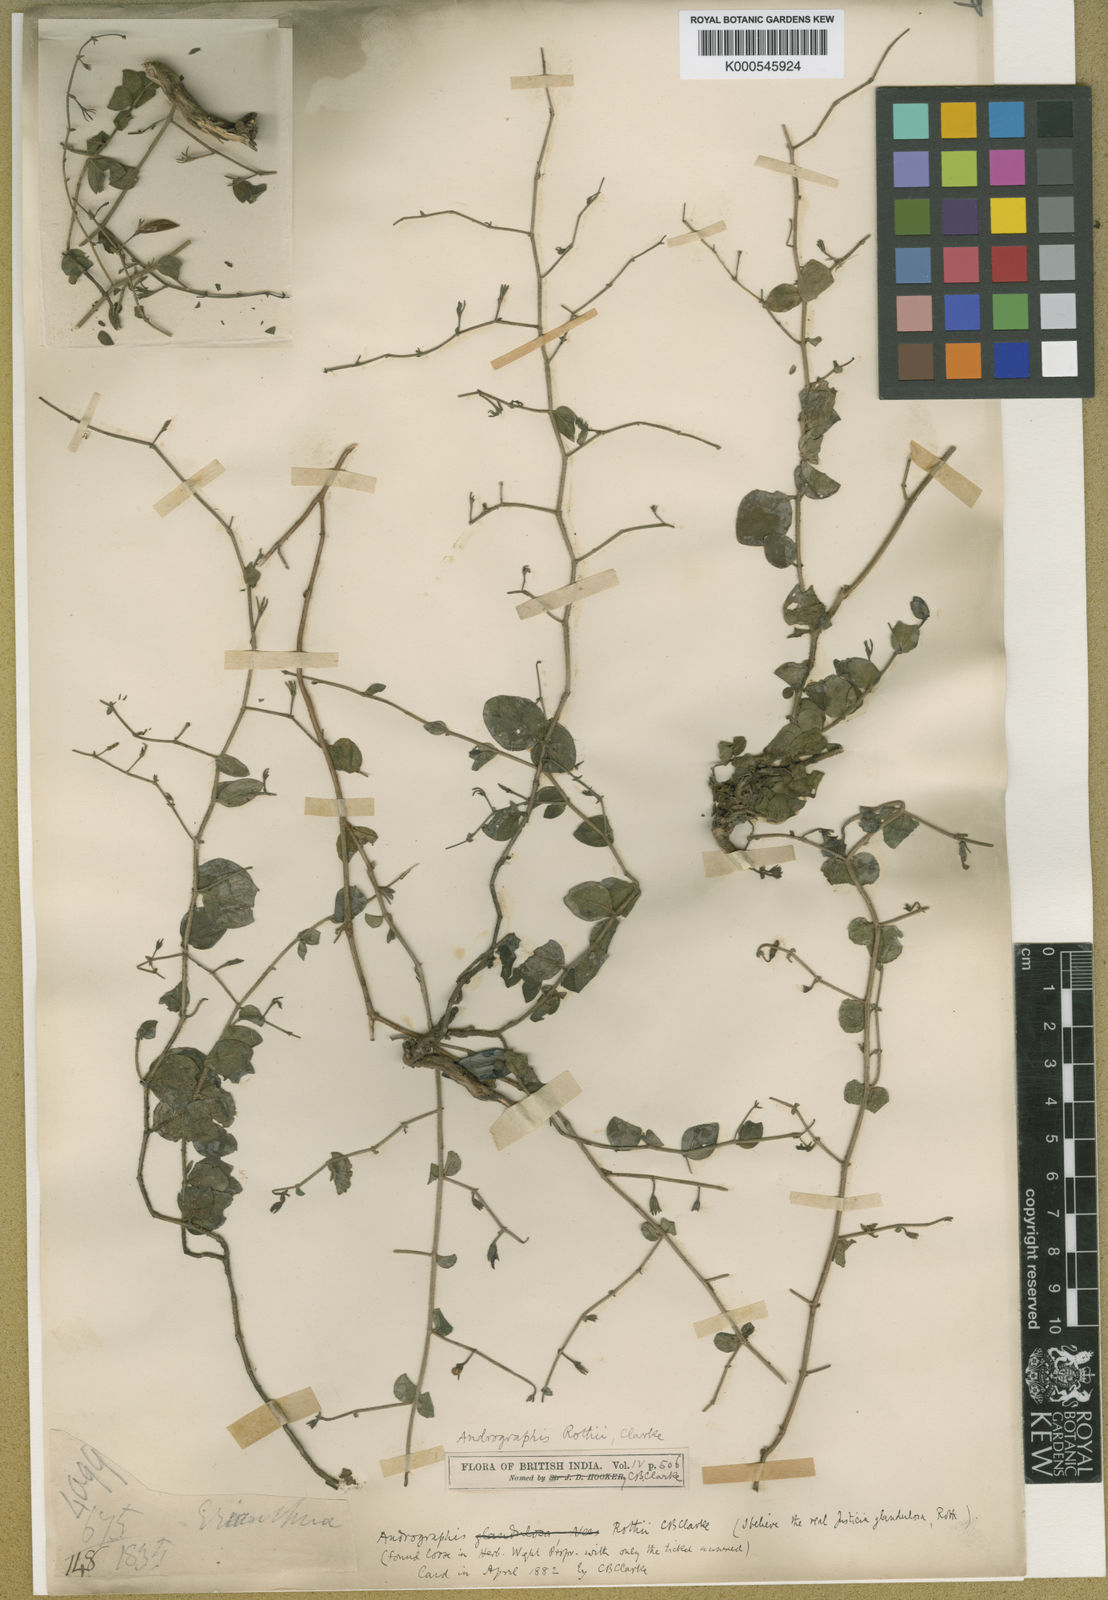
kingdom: Plantae
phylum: Tracheophyta
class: Magnoliopsida
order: Lamiales
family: Acanthaceae
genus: Andrographis
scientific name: Andrographis rothii
